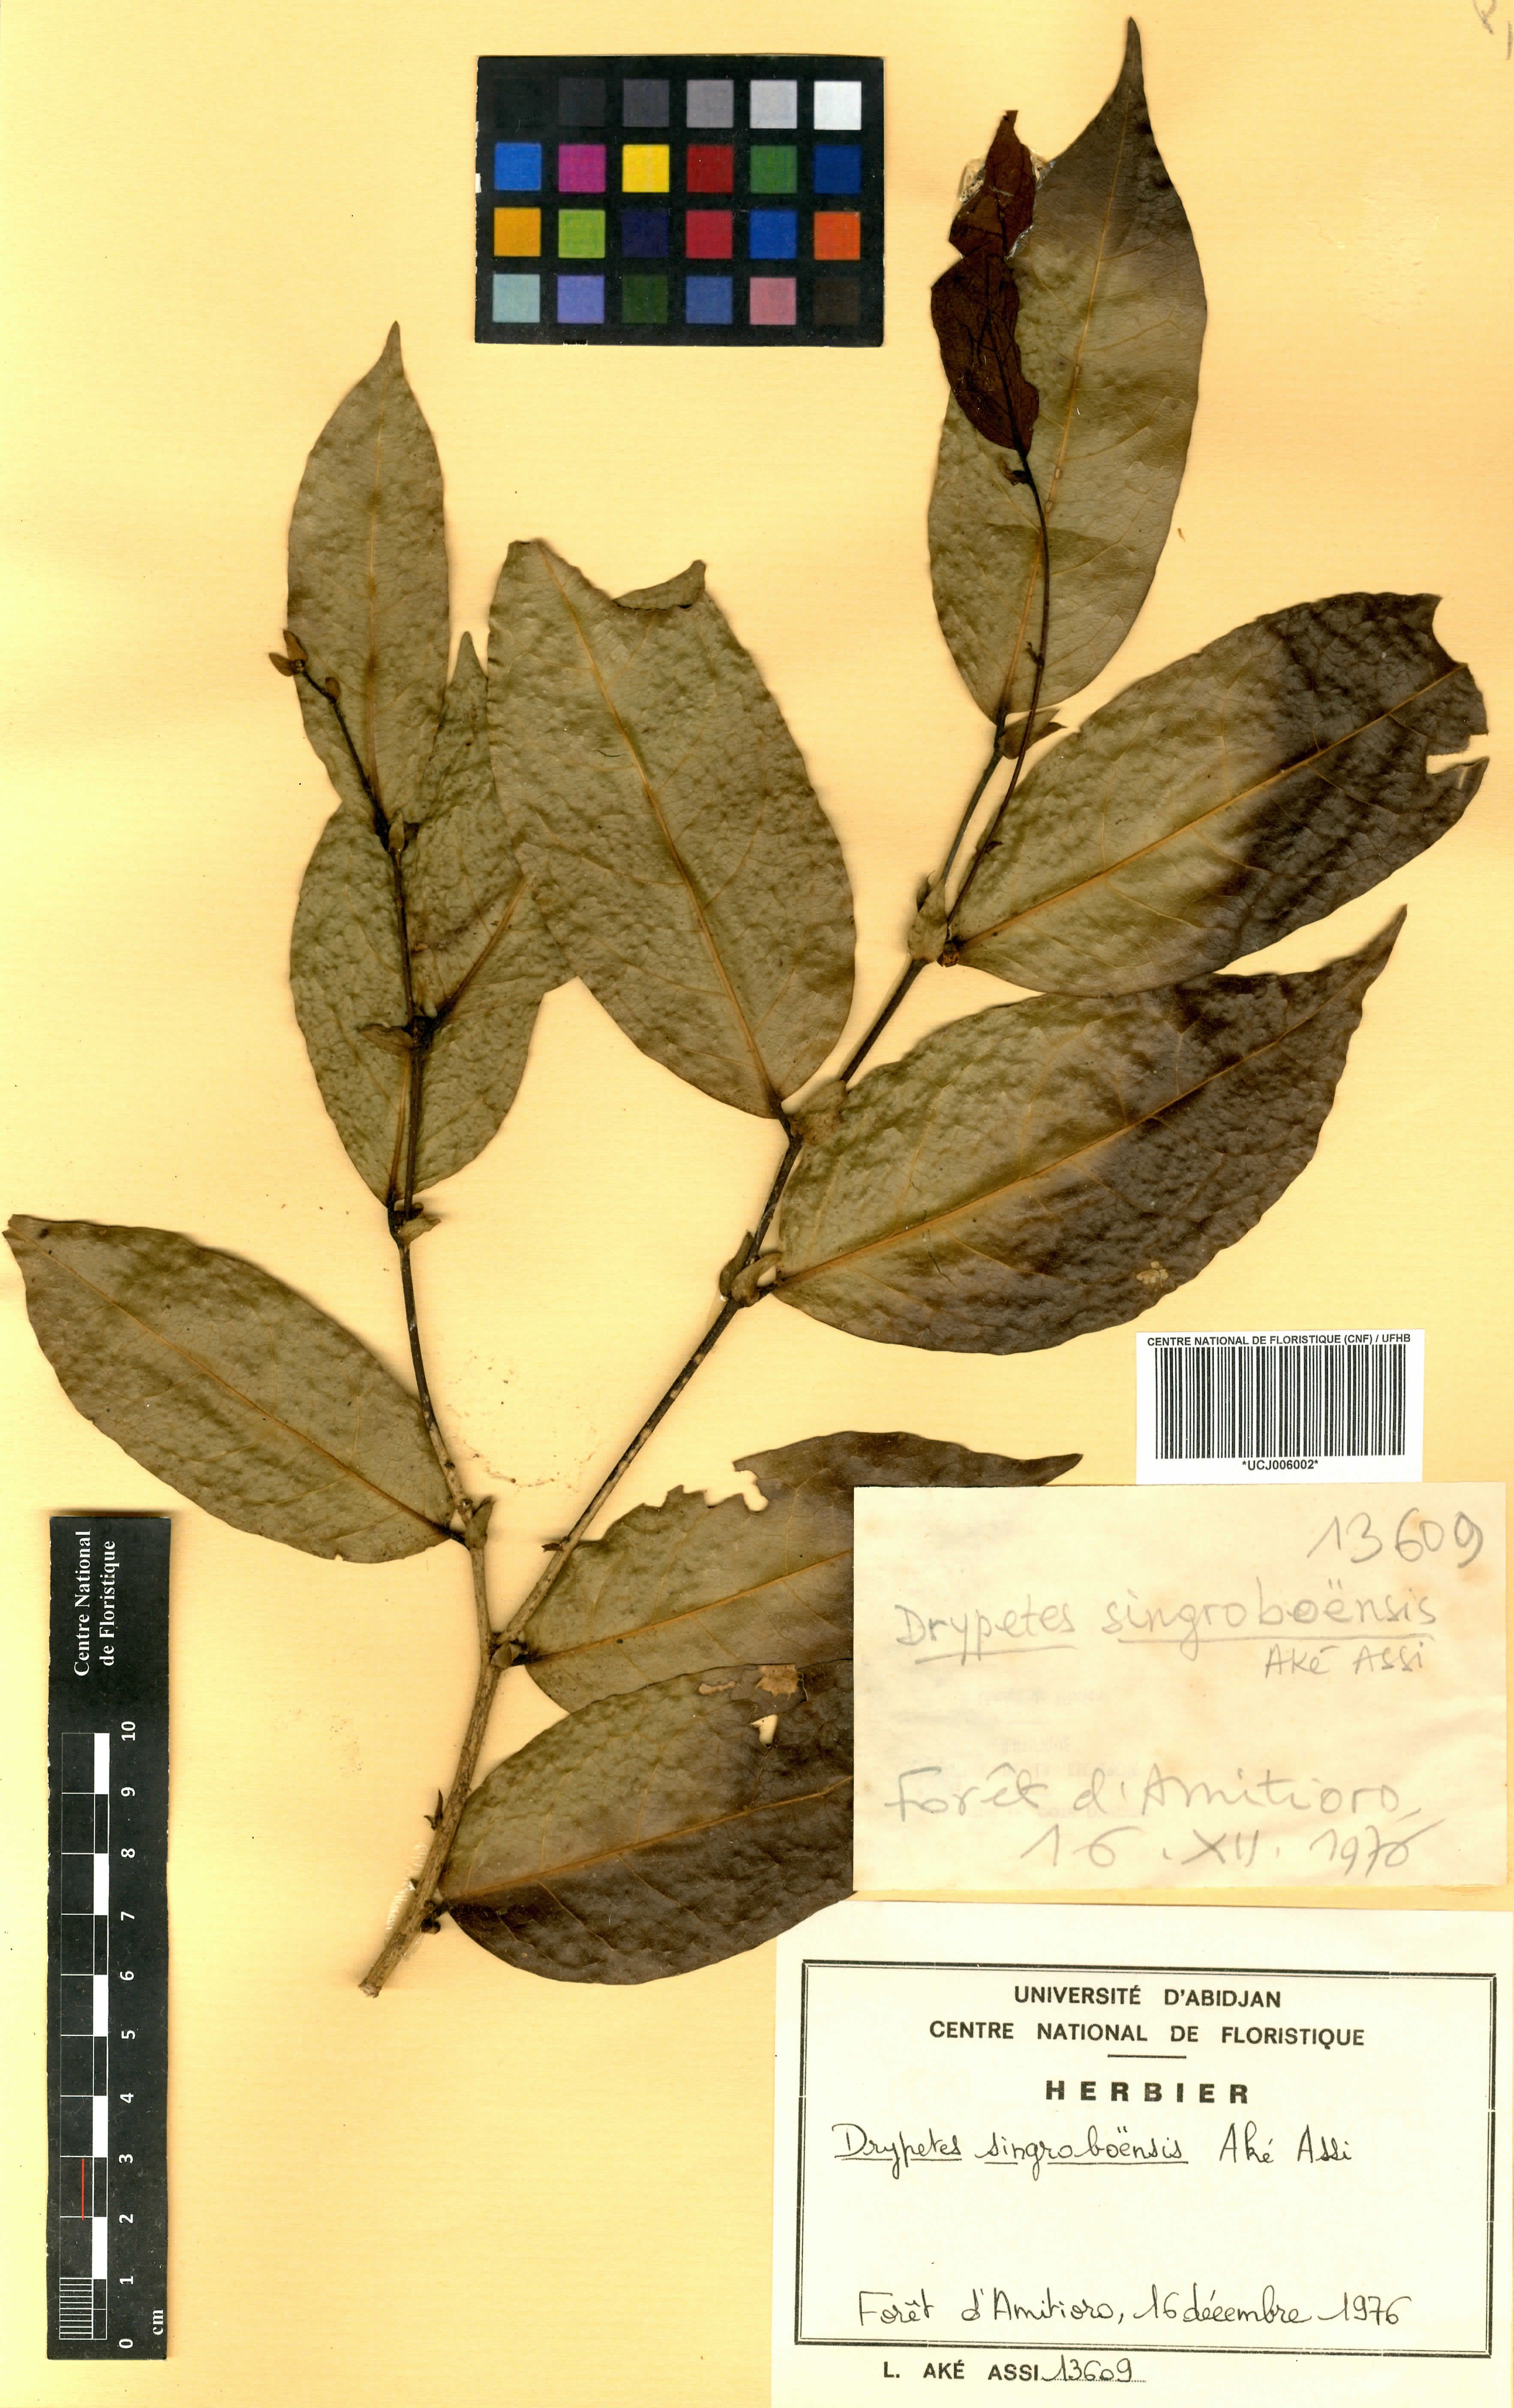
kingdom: Plantae
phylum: Tracheophyta
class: Magnoliopsida
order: Malpighiales
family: Putranjivaceae
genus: Drypetes
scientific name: Drypetes singroboensis
